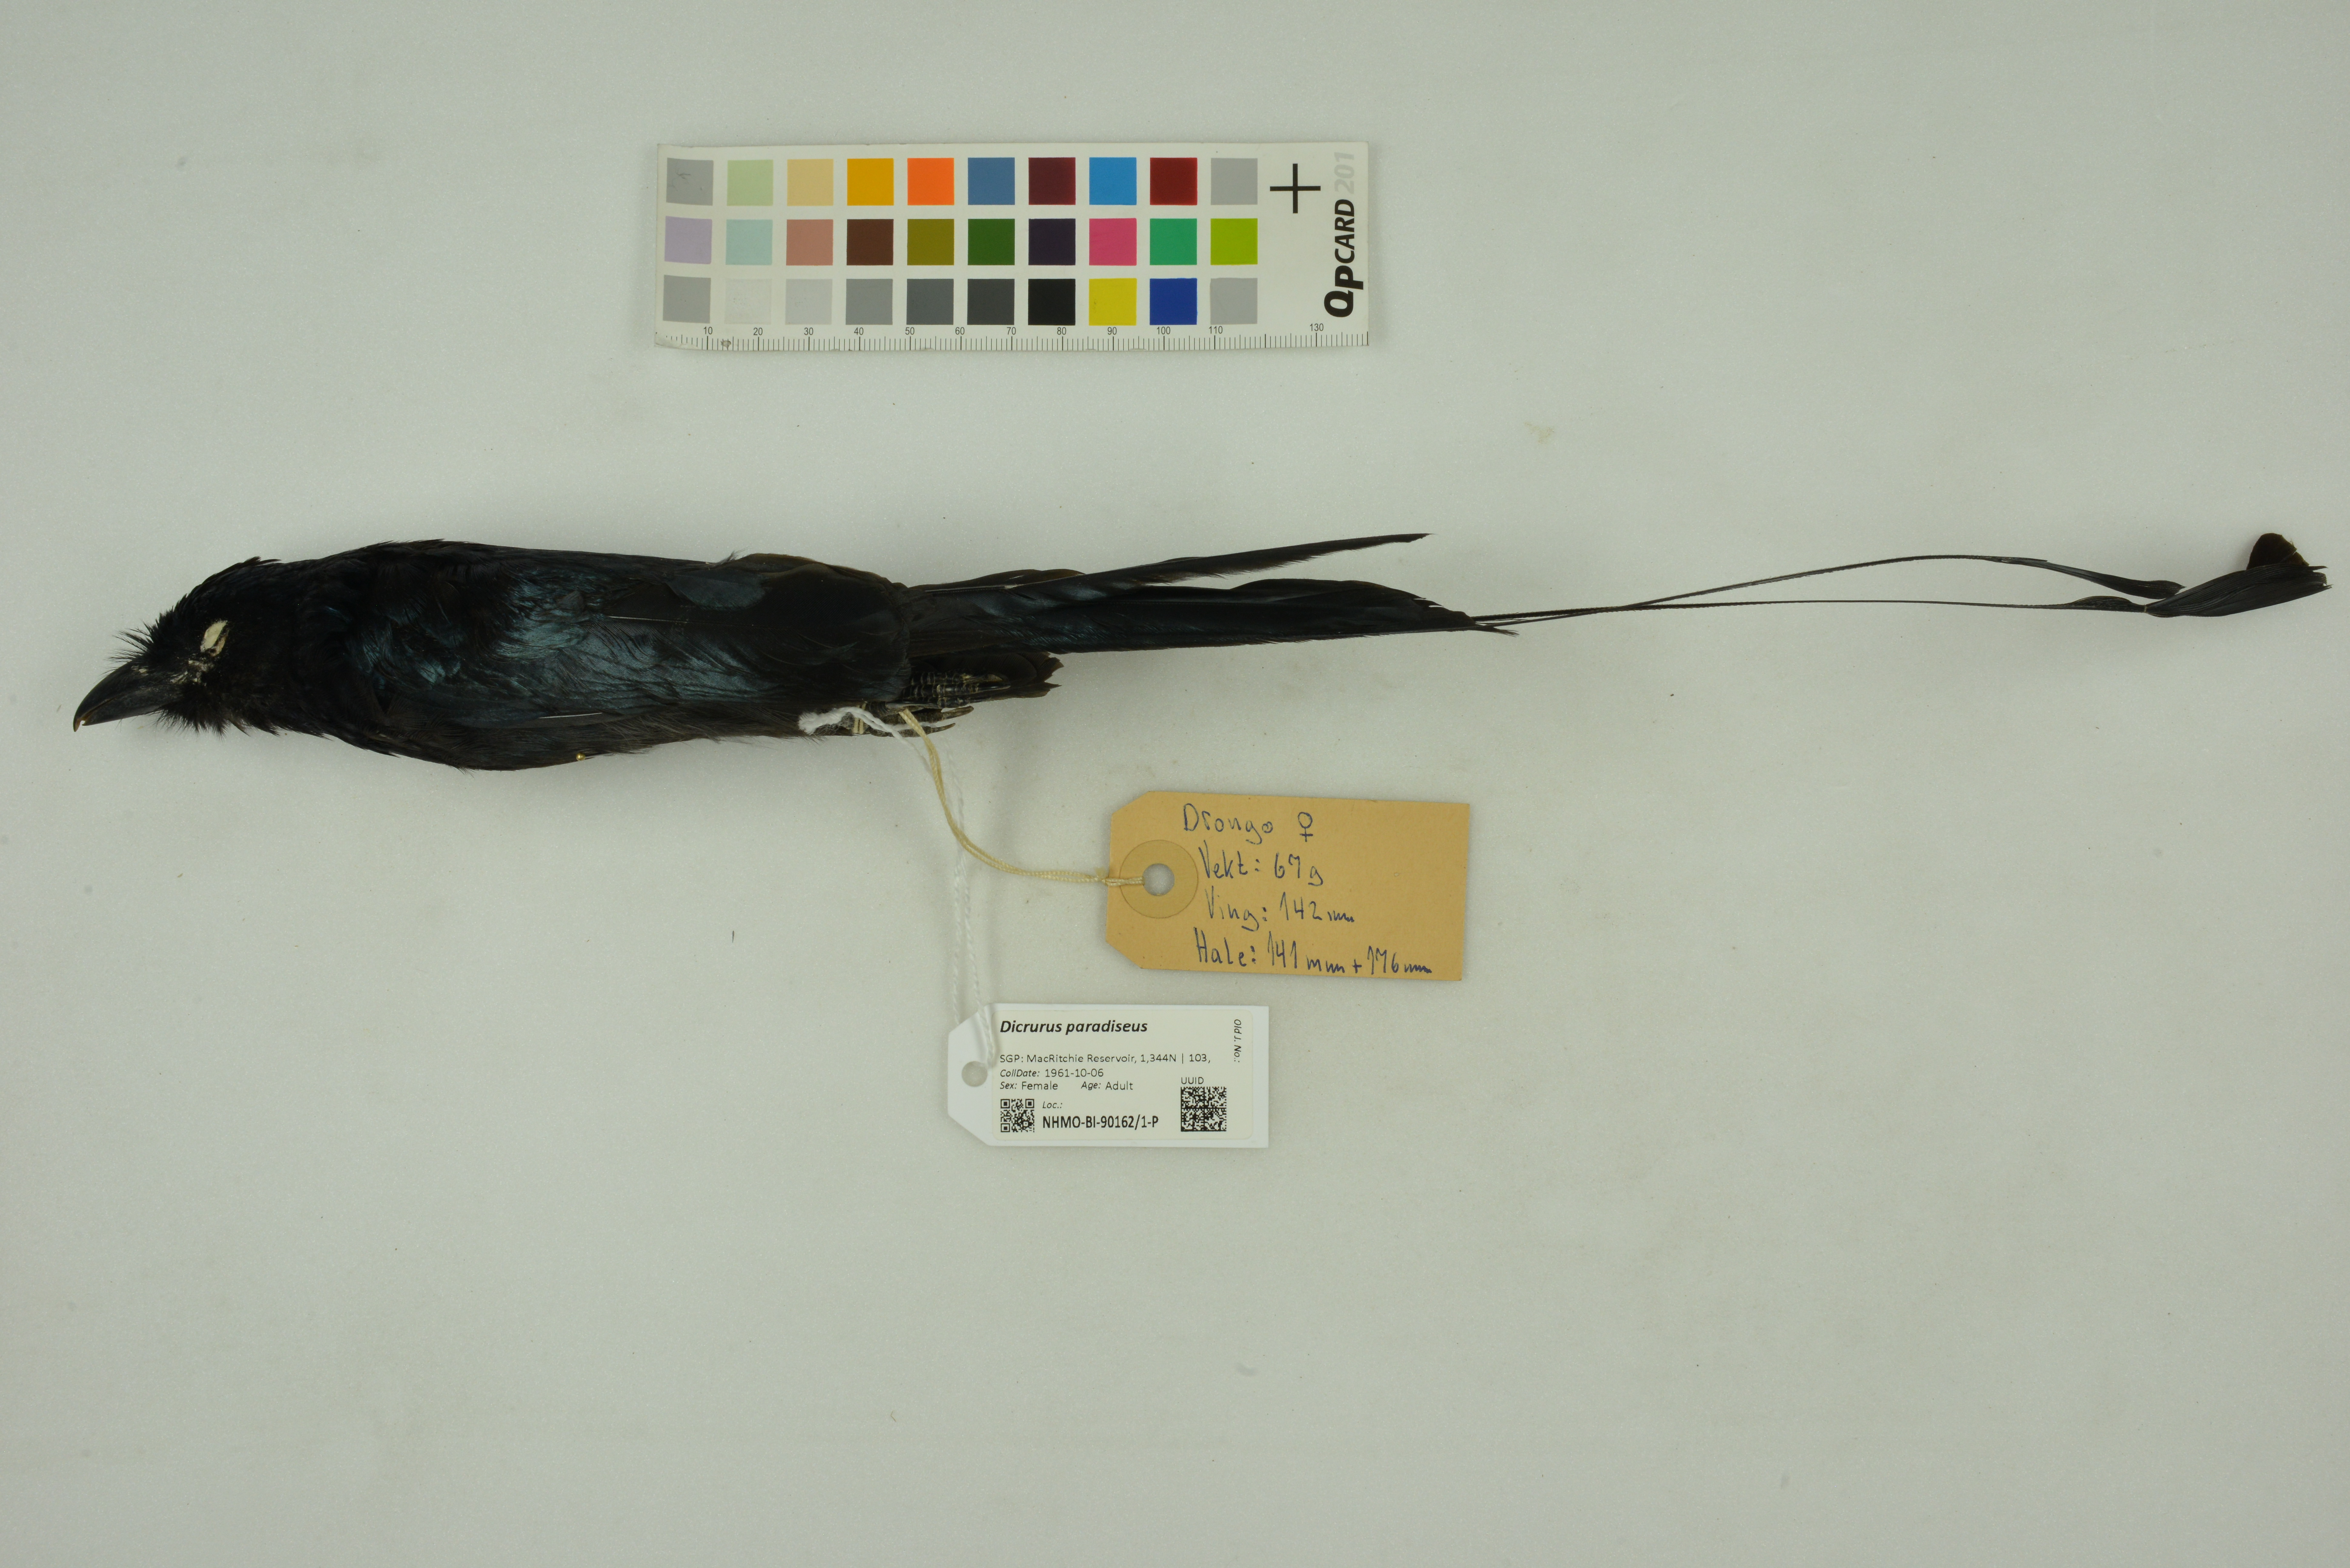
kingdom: Animalia
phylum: Chordata
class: Aves
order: Passeriformes
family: Dicruridae
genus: Dicrurus
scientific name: Dicrurus paradiseus
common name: Greater racket-tailed drongo
